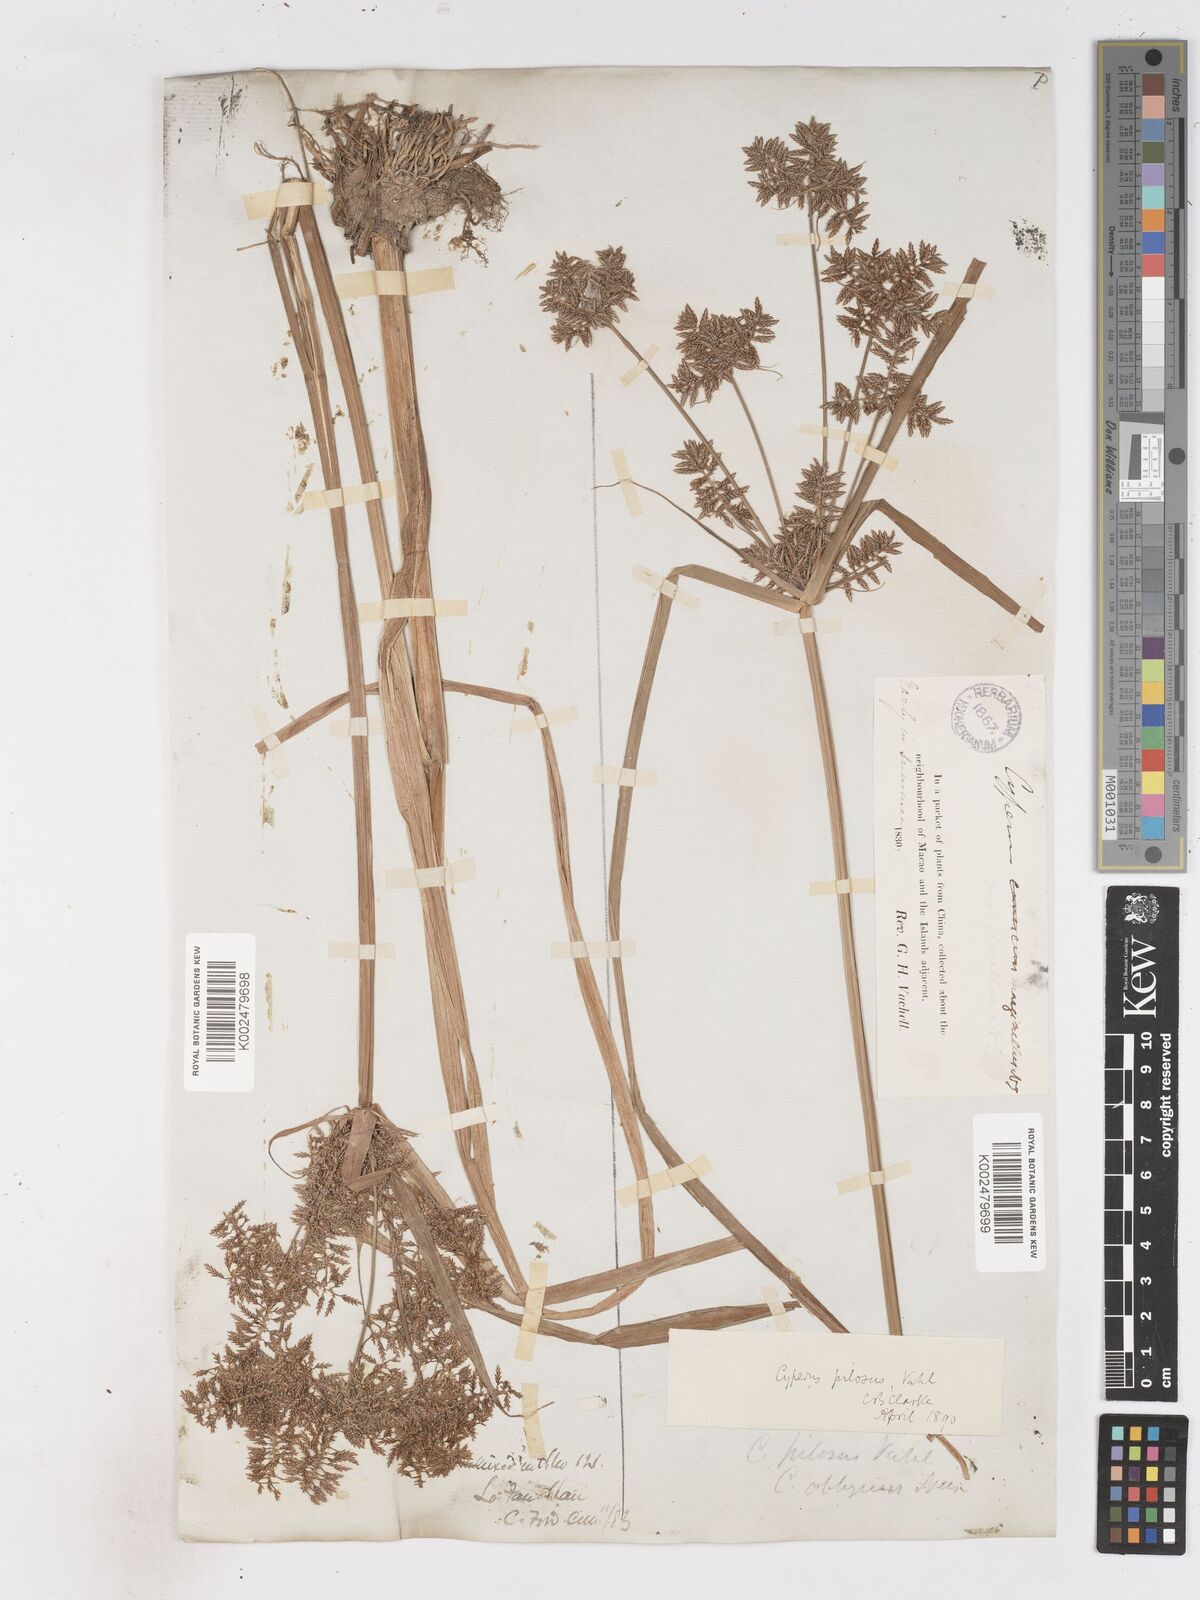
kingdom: Plantae
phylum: Tracheophyta
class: Liliopsida
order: Poales
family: Cyperaceae
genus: Cyperus
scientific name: Cyperus pilosus
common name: Fuzzy flatsedge
